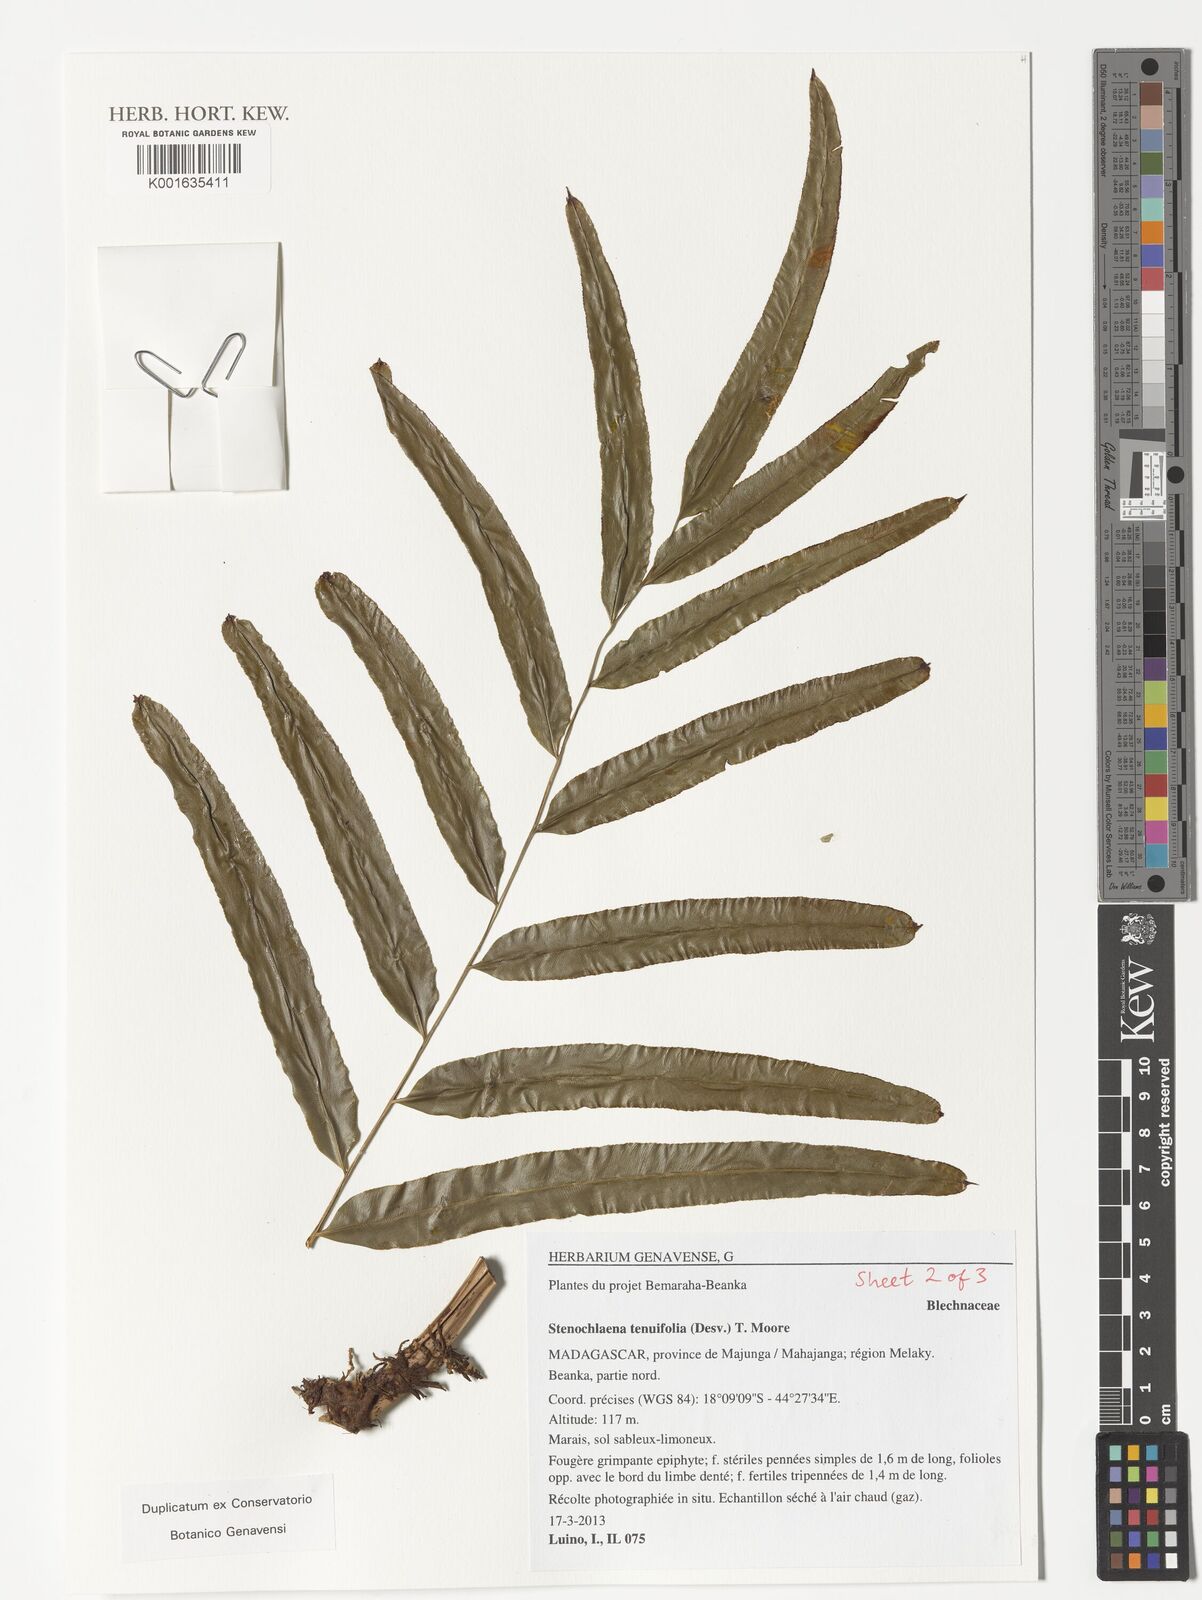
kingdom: Plantae
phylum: Tracheophyta
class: Polypodiopsida
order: Polypodiales
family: Blechnaceae
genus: Stenochlaena
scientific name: Stenochlaena tenuifolia
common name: Giant vine fern
